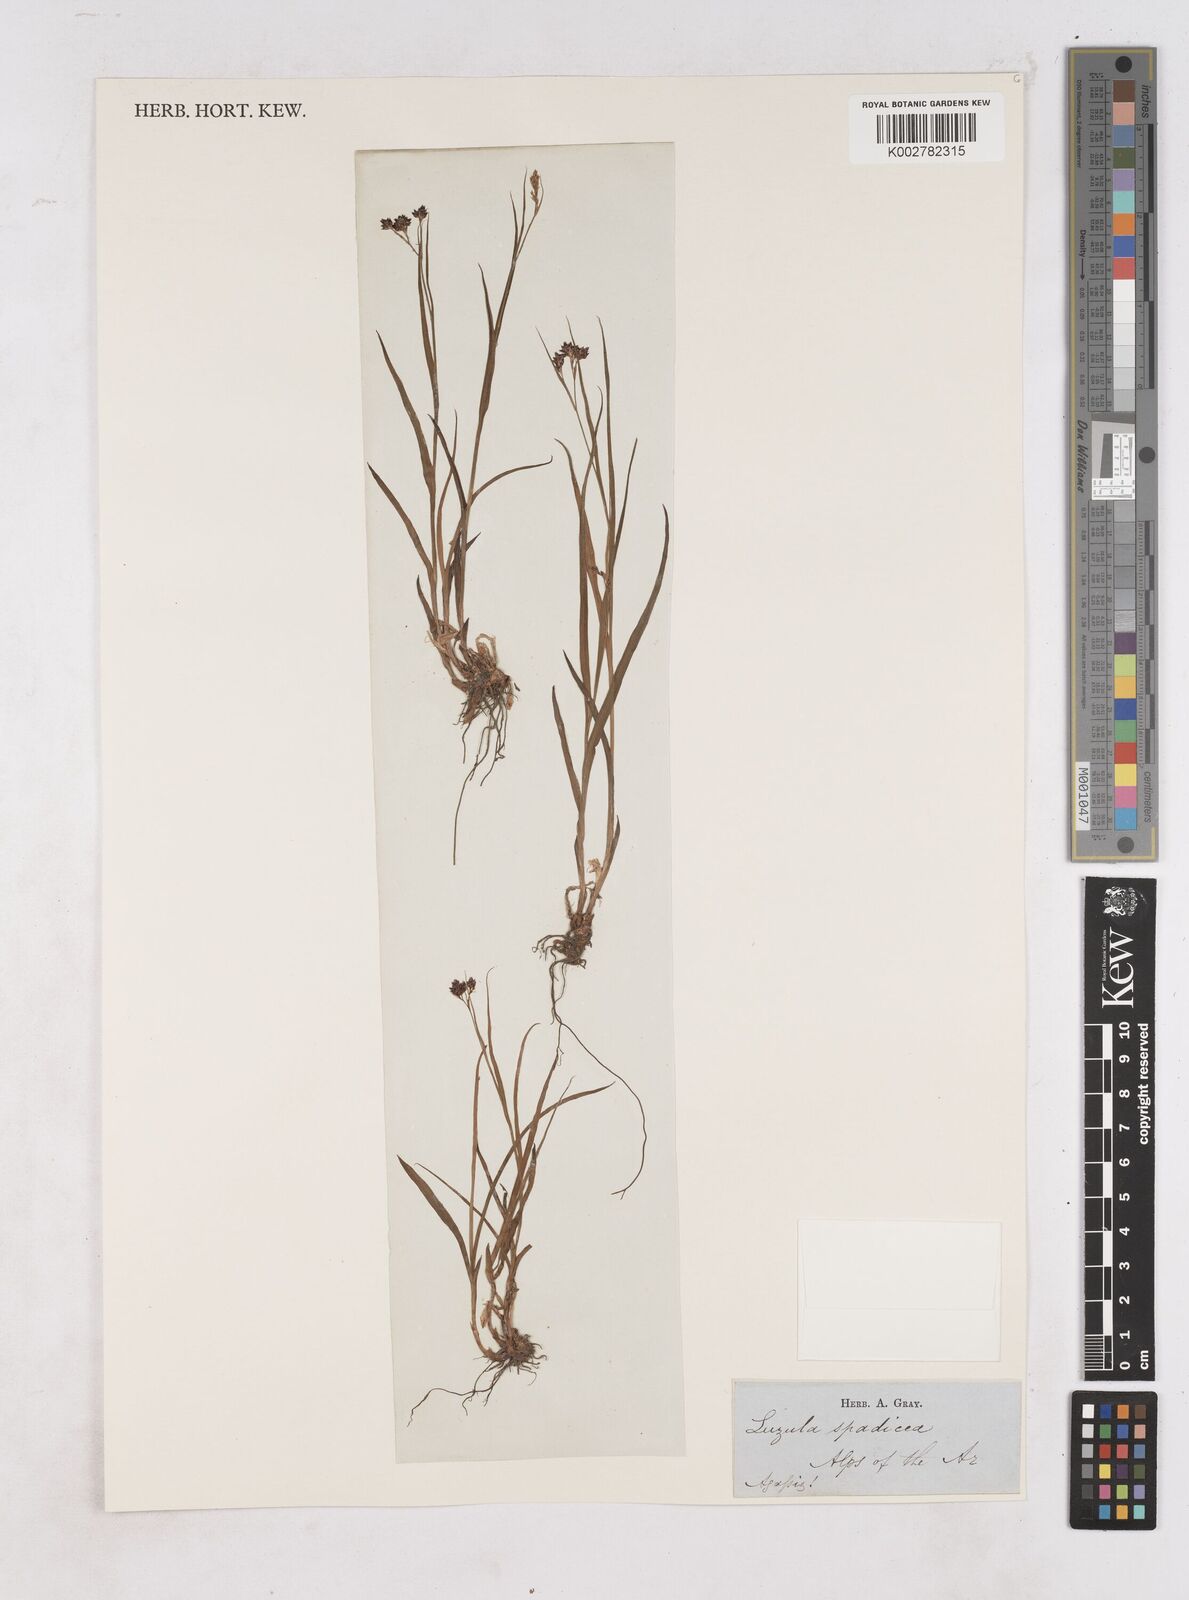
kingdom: Plantae
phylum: Tracheophyta
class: Liliopsida
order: Poales
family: Juncaceae
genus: Luzula
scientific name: Luzula alpinopilosa
